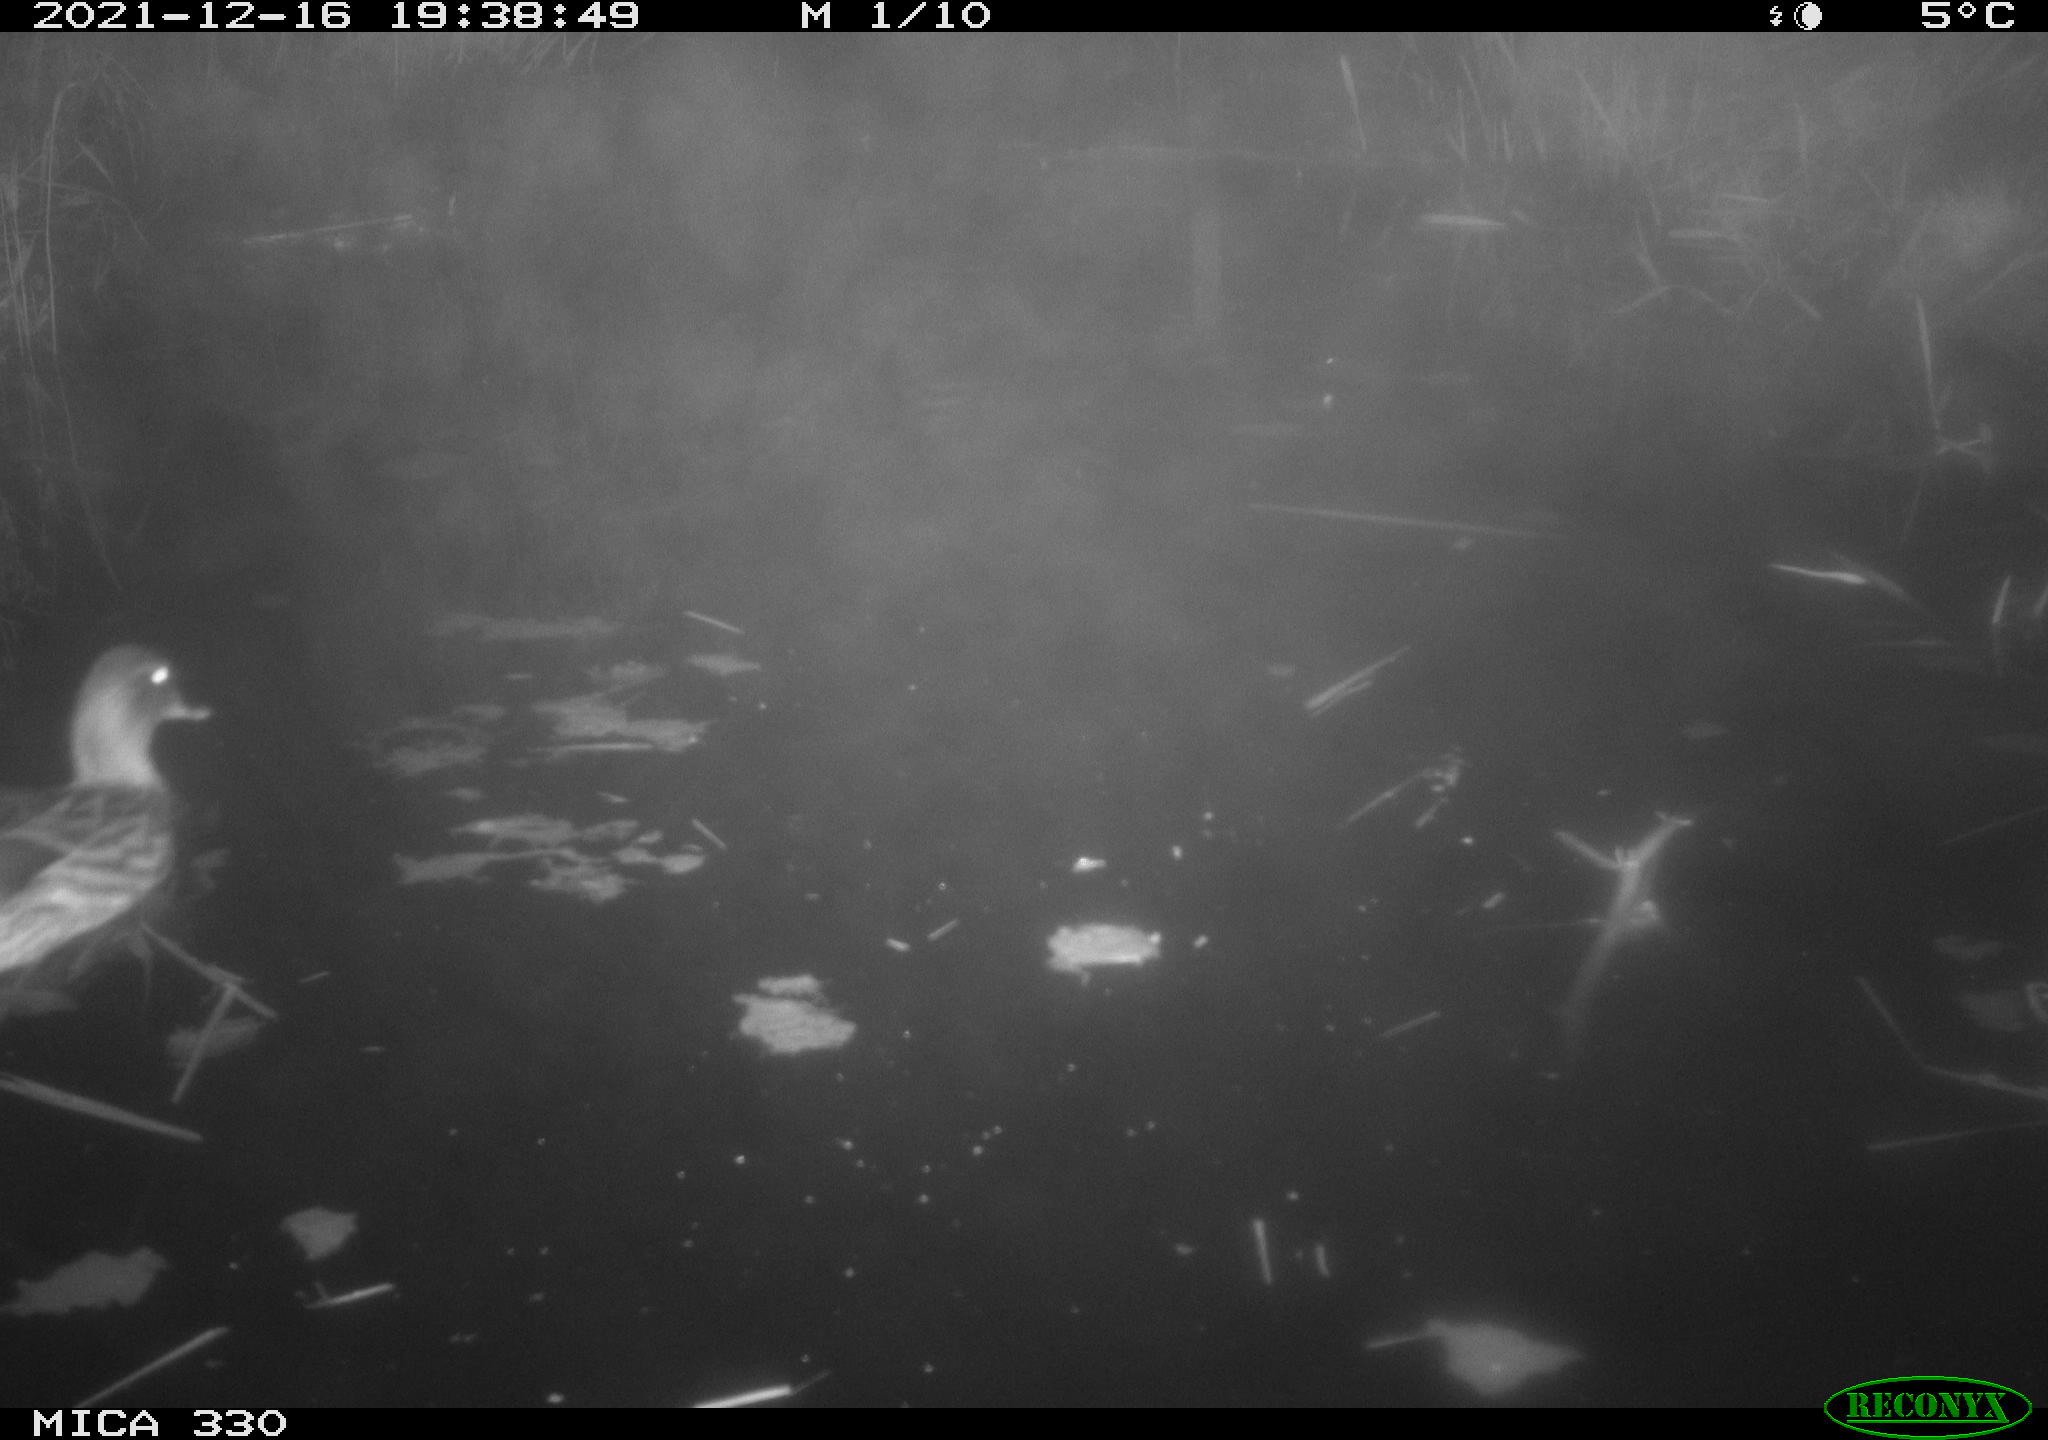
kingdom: Animalia
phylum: Chordata
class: Aves
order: Anseriformes
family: Anatidae
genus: Anas
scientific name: Anas platyrhynchos
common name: Mallard
